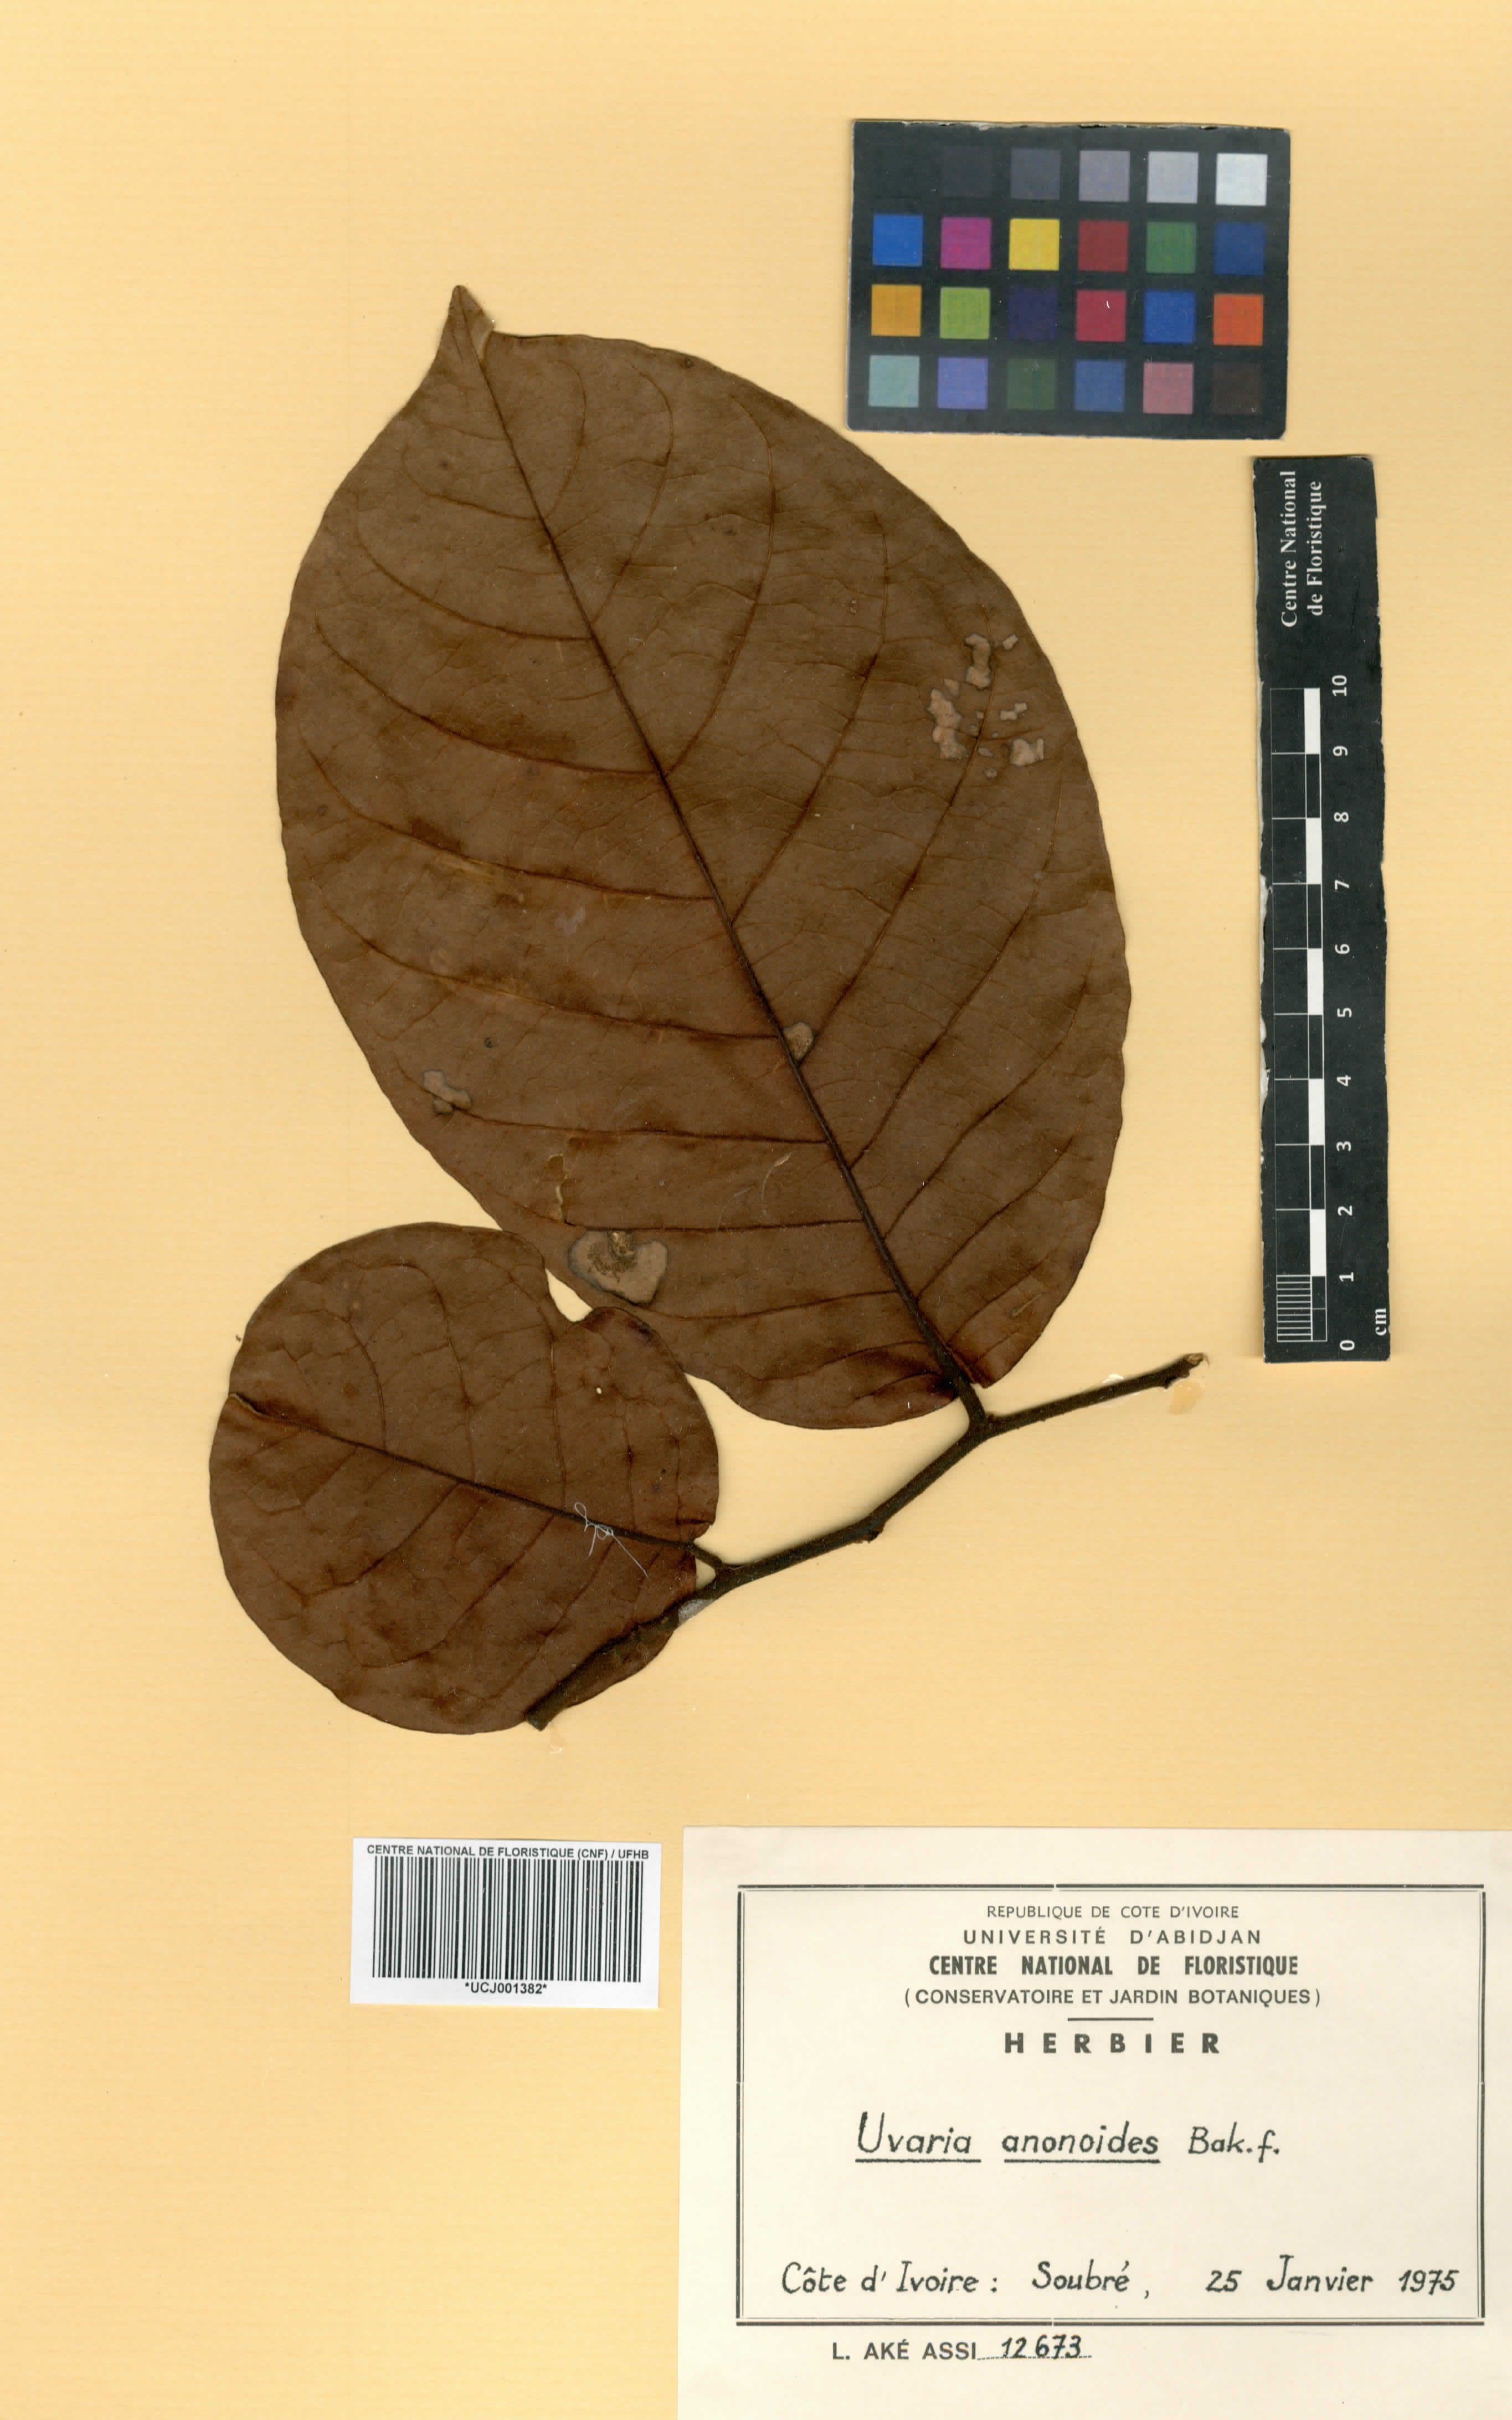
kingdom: Plantae
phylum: Tracheophyta
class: Magnoliopsida
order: Magnoliales
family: Annonaceae
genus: Uvaria
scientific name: Uvaria anonoides
